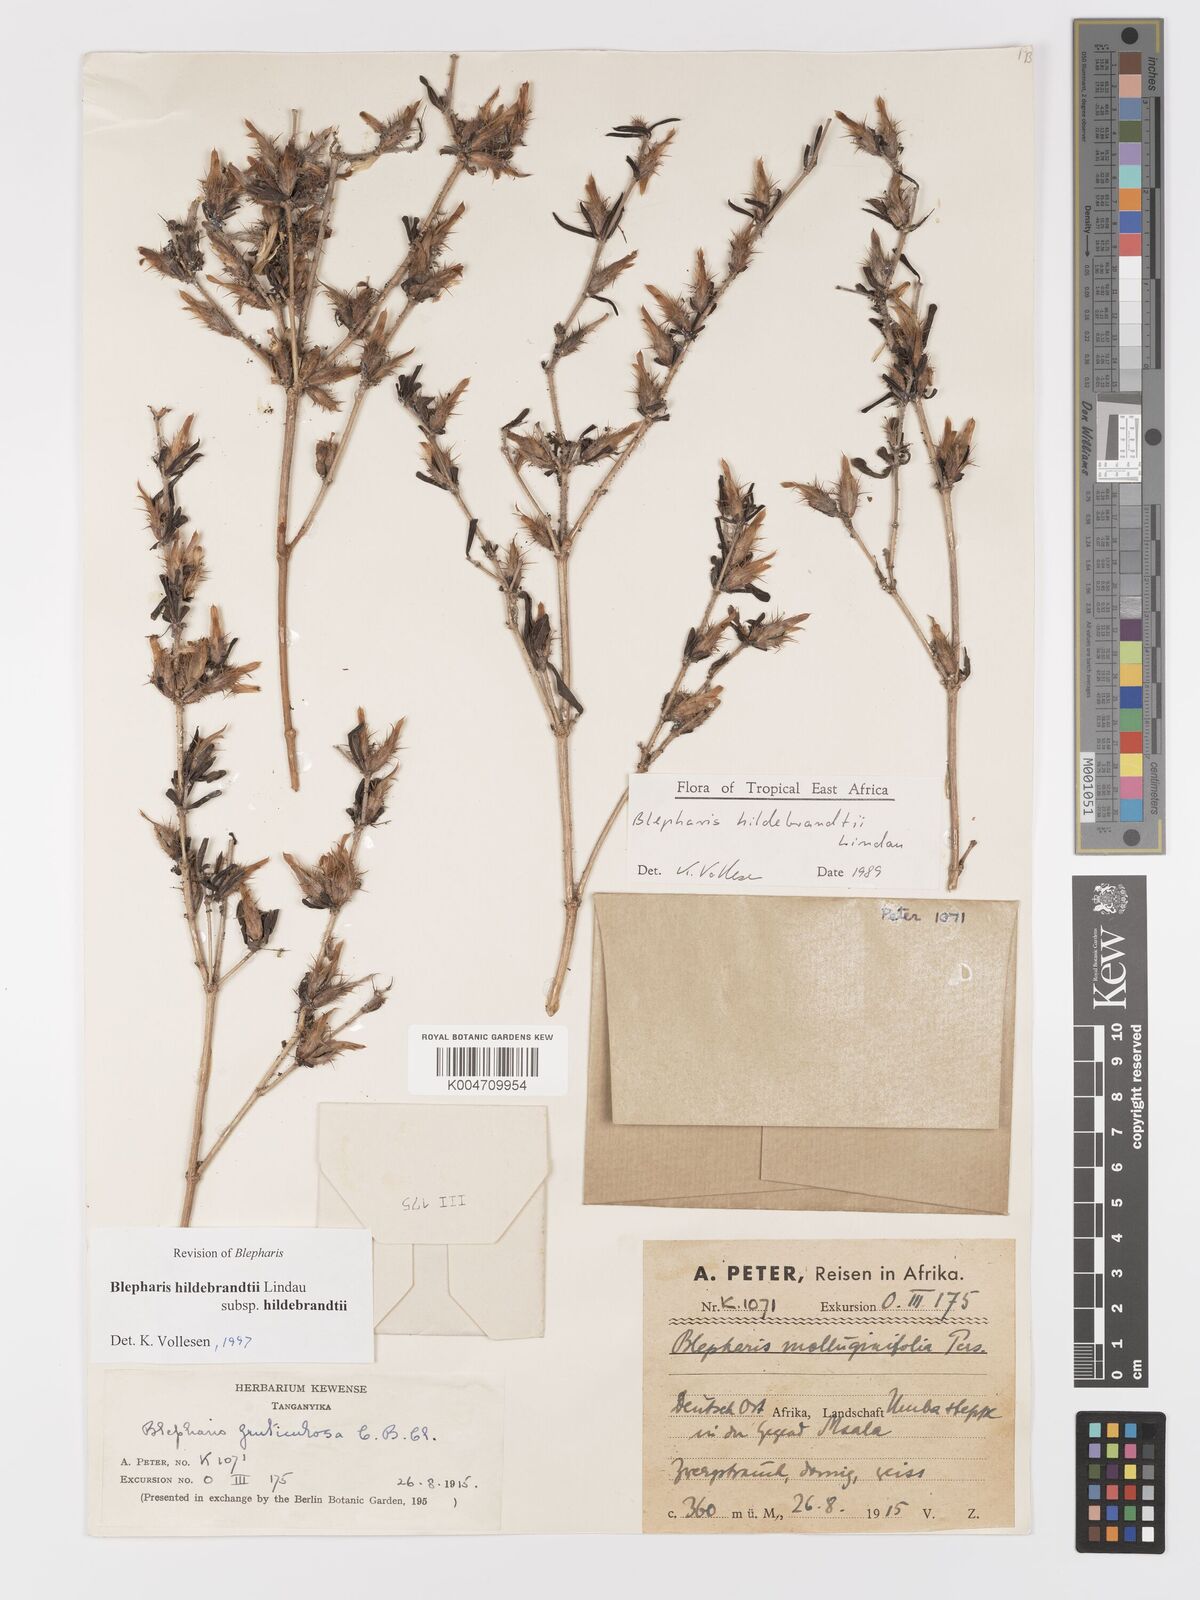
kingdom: Plantae
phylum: Tracheophyta
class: Magnoliopsida
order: Lamiales
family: Acanthaceae
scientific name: Acanthaceae
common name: Acanthaceae
